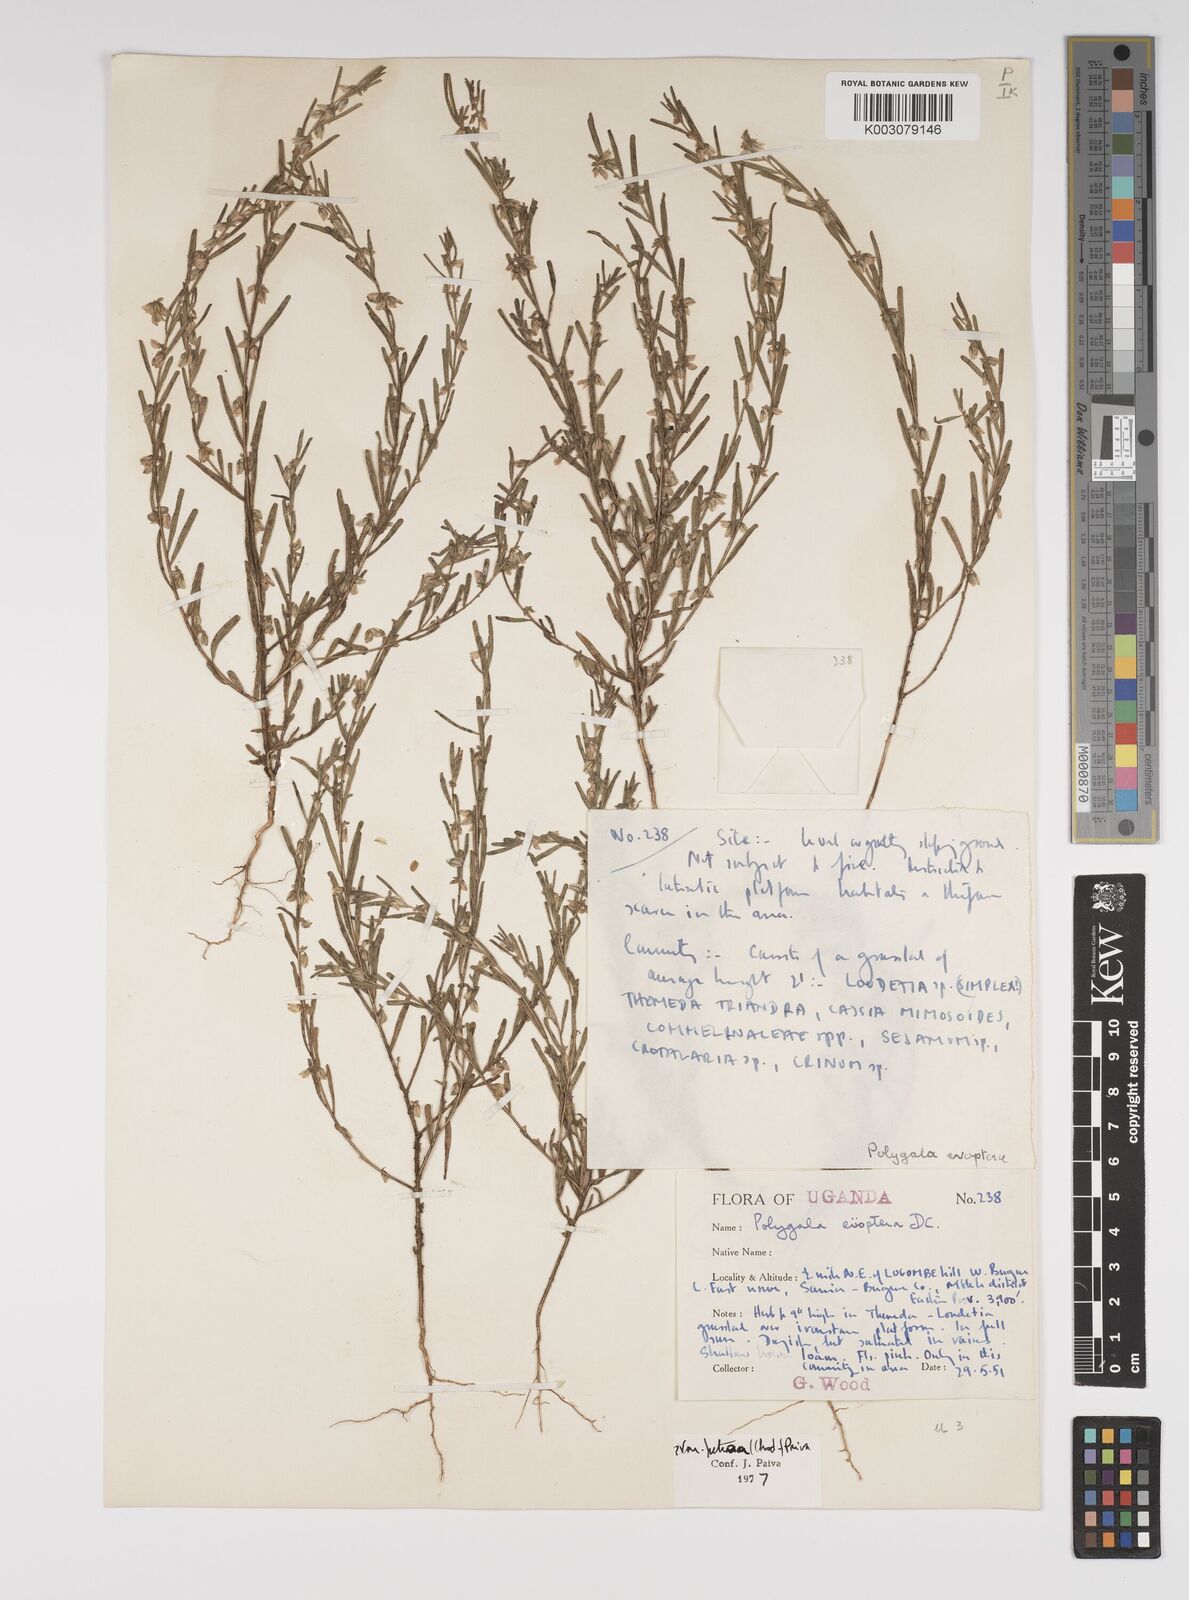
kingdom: Plantae
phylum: Tracheophyta
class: Magnoliopsida
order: Fabales
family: Polygalaceae
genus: Polygala
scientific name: Polygala erioptera
